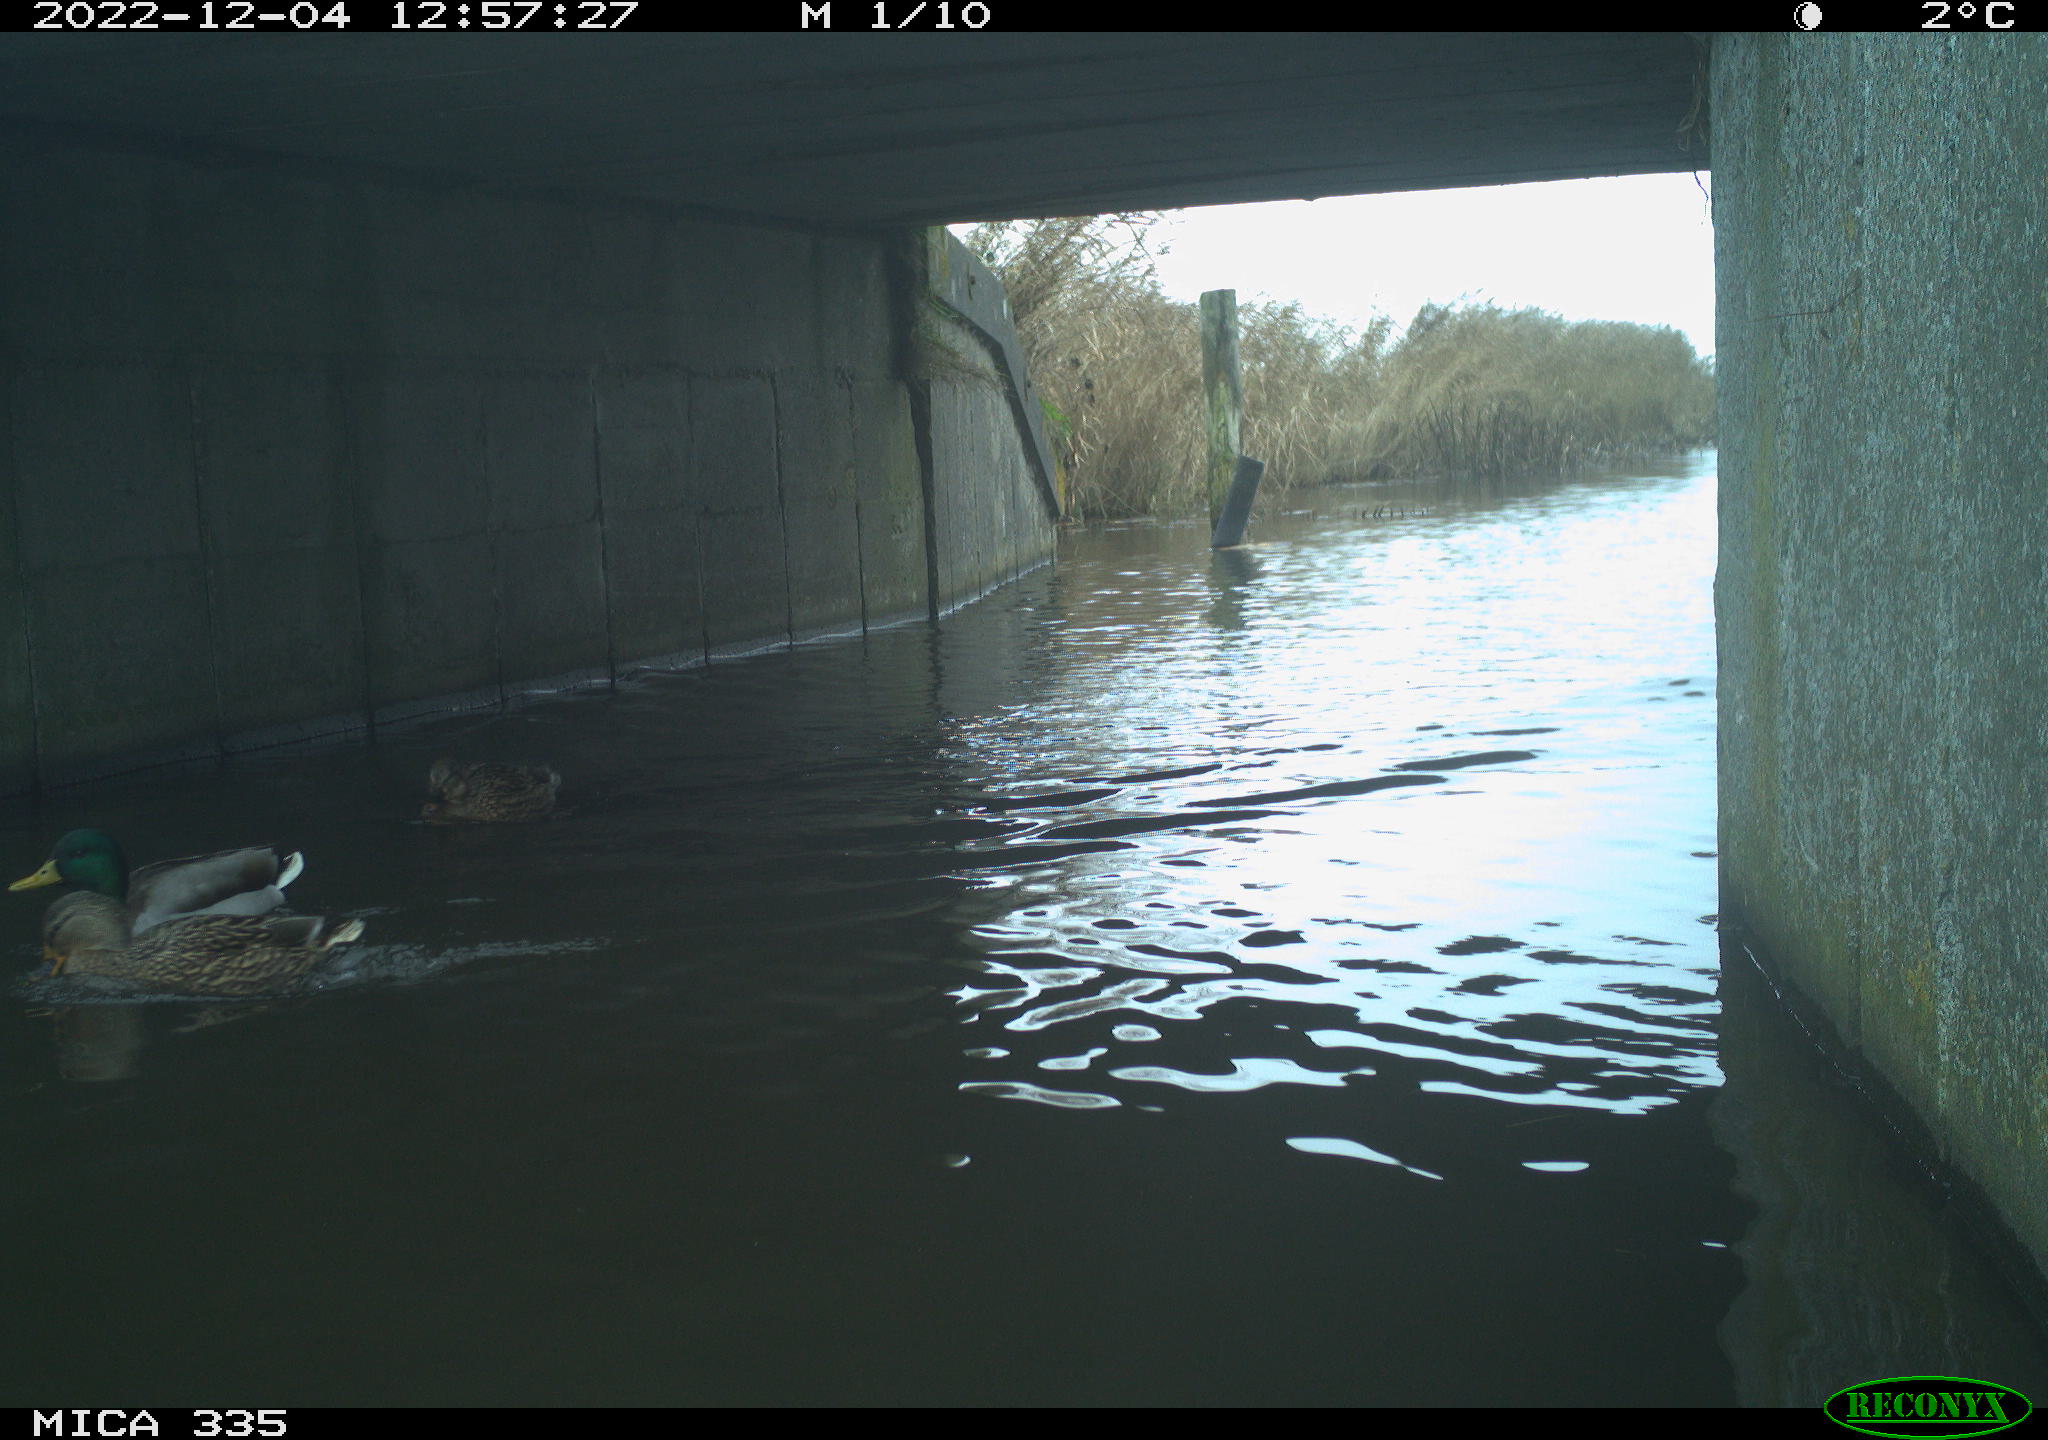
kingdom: Animalia
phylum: Chordata
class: Aves
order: Anseriformes
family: Anatidae
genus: Anas
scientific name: Anas
